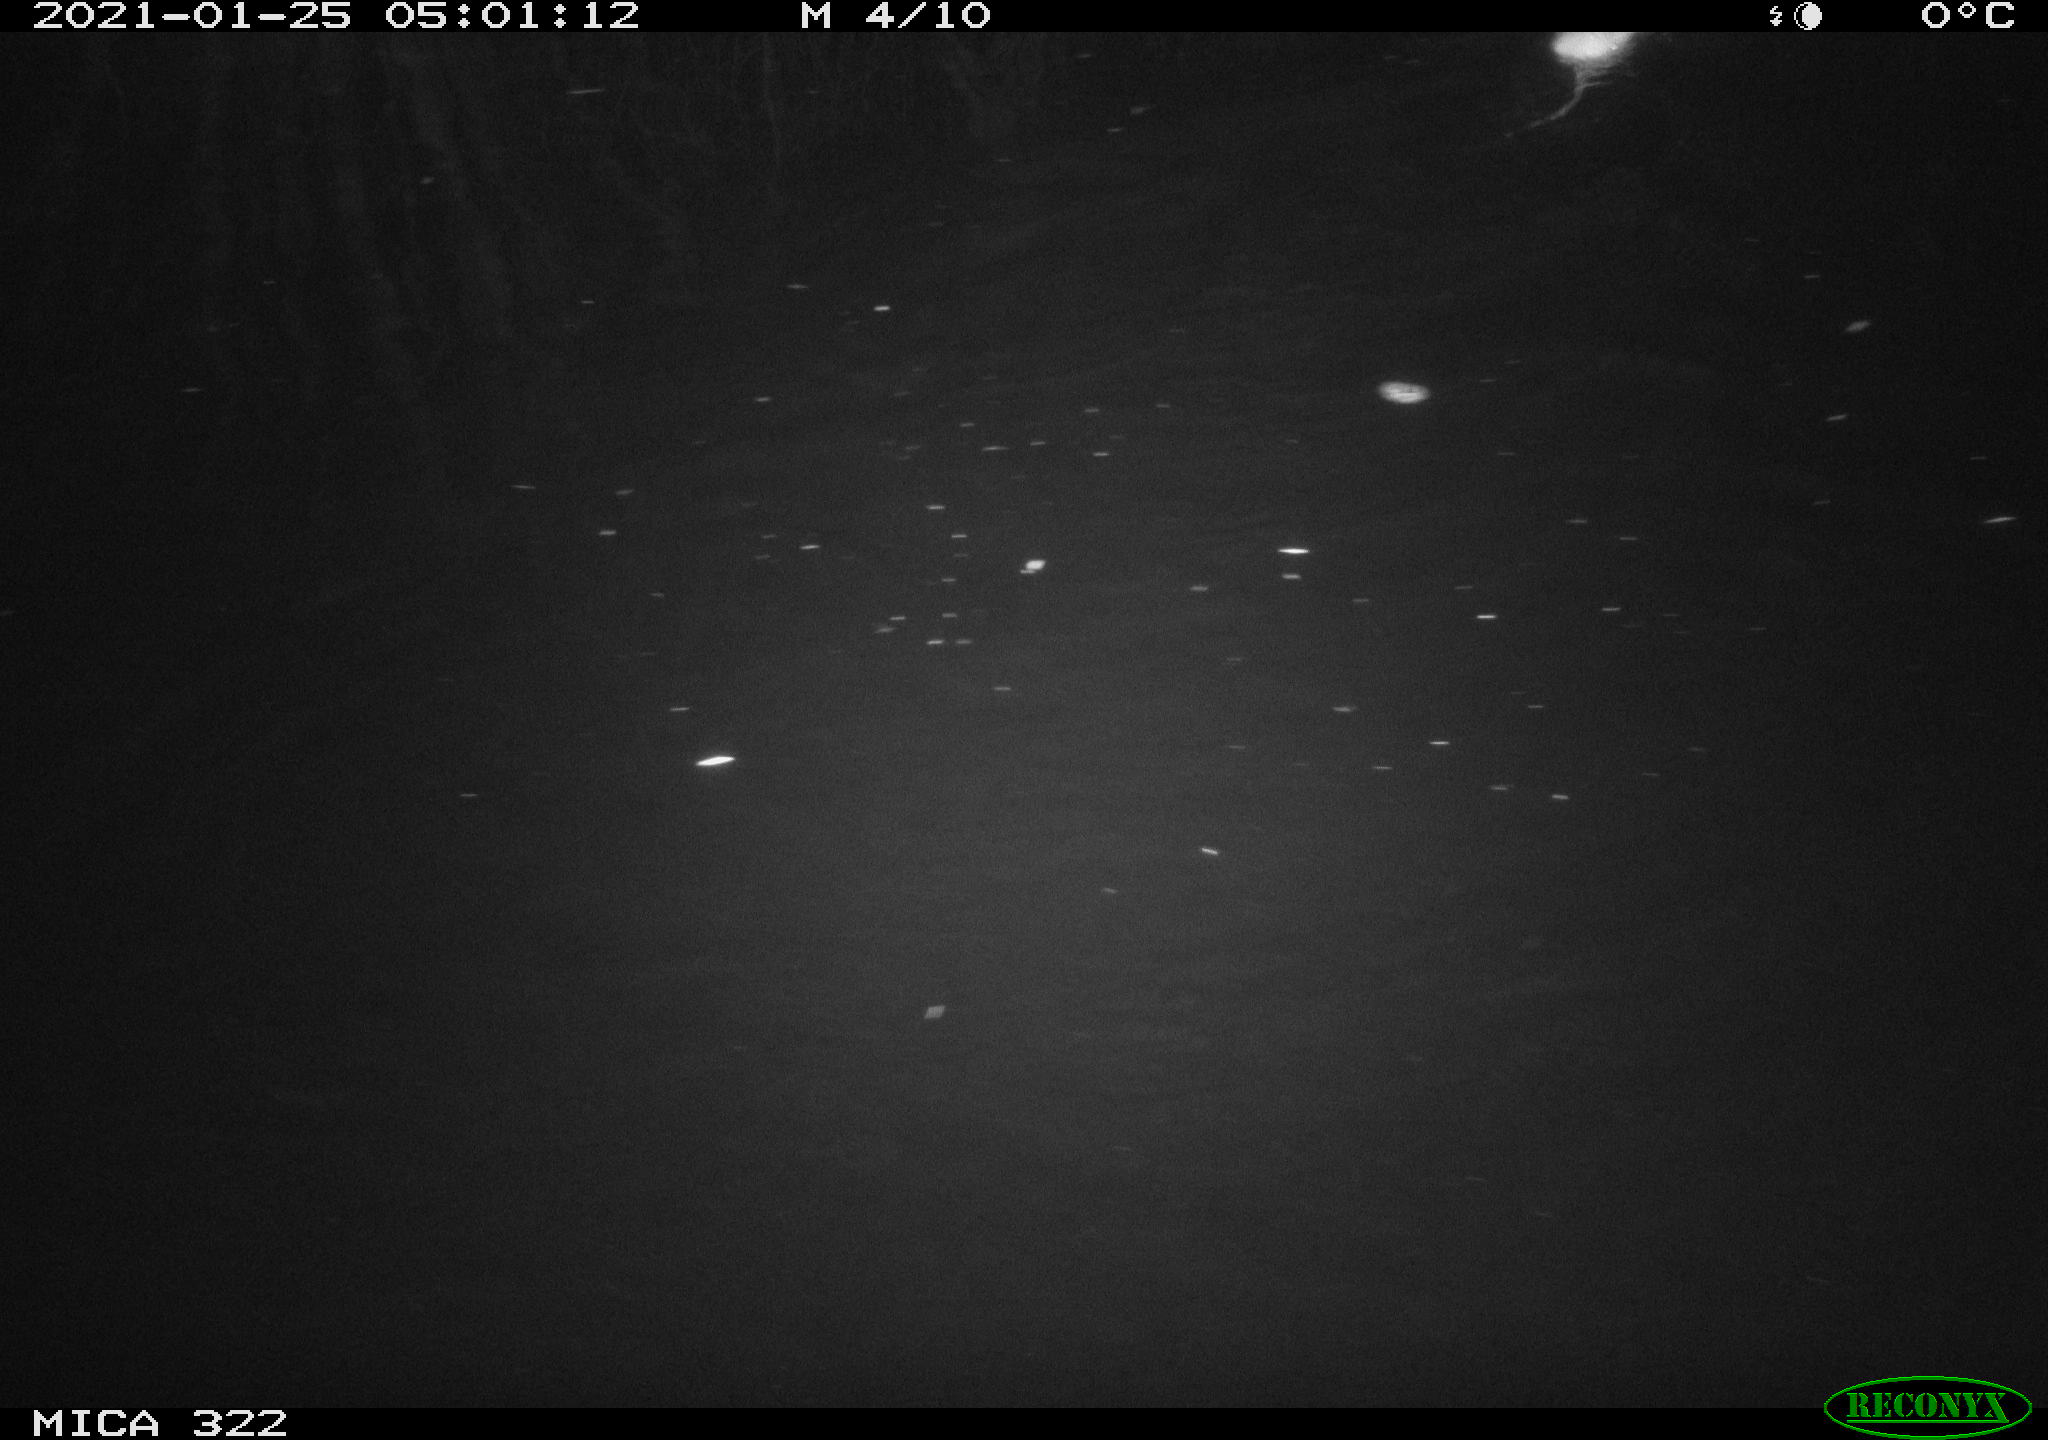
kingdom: Animalia
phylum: Chordata
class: Mammalia
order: Rodentia
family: Muridae
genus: Rattus
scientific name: Rattus norvegicus
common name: Brown rat
